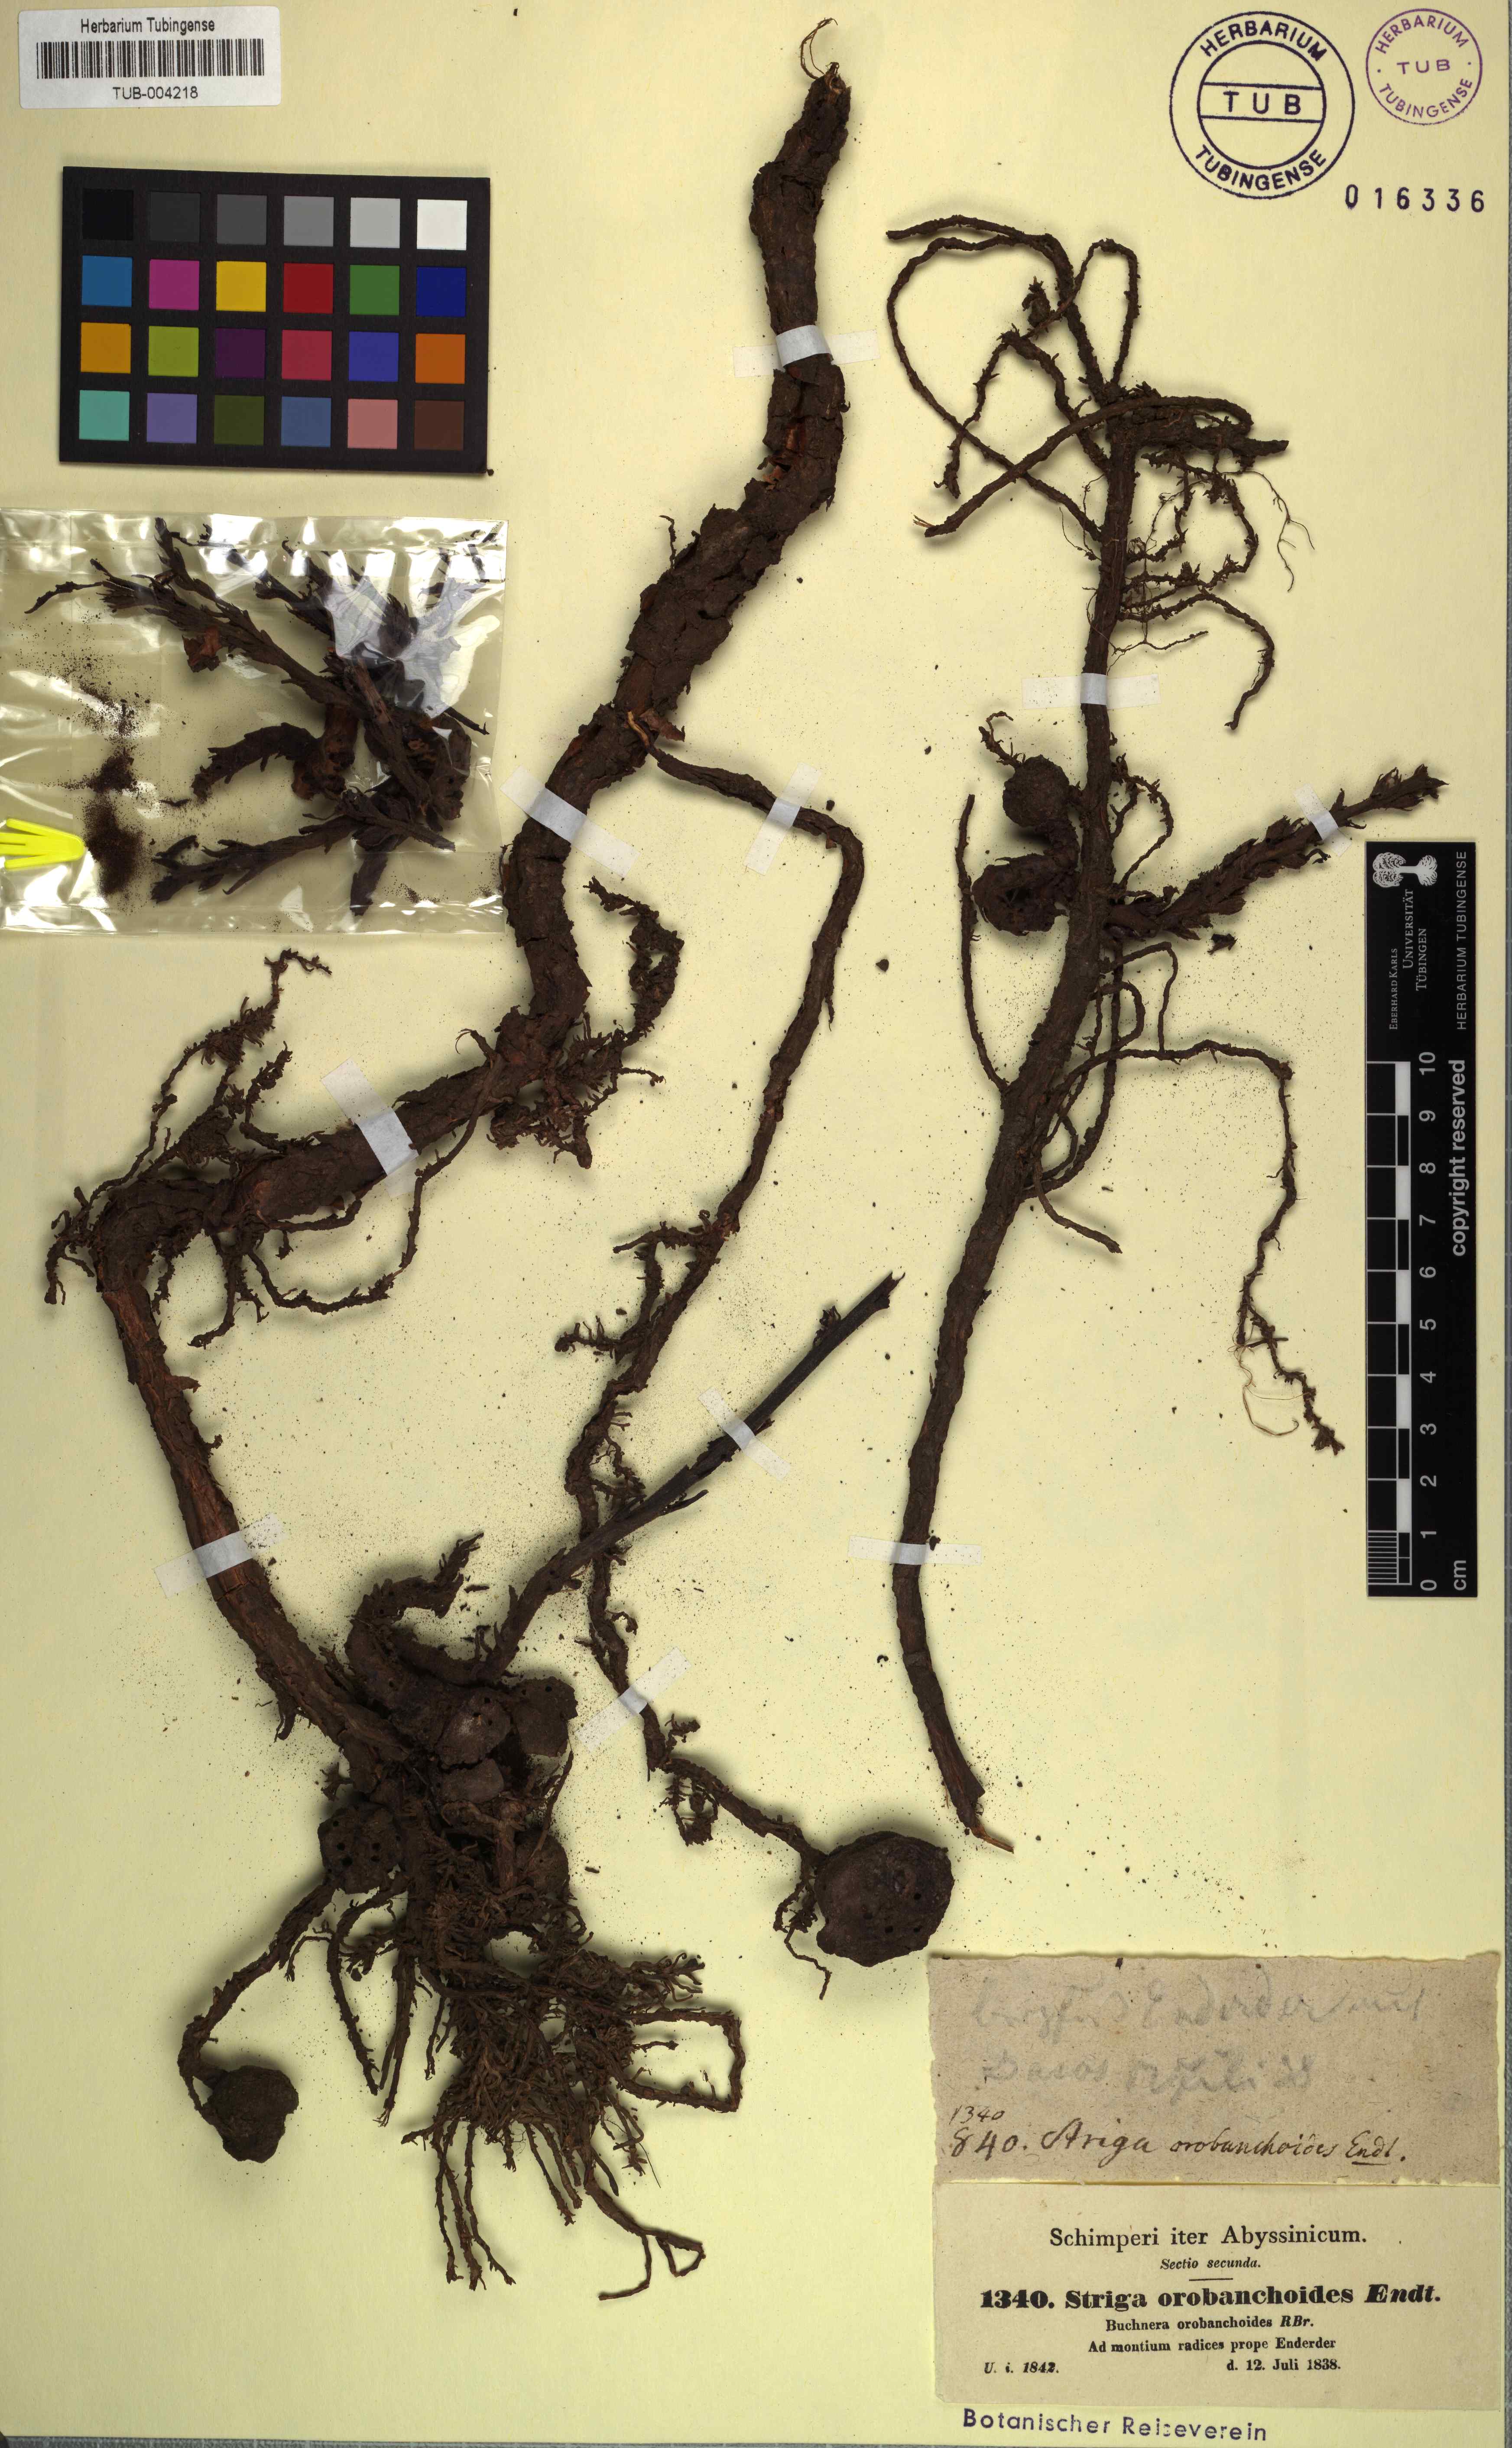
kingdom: Plantae
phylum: Tracheophyta
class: Magnoliopsida
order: Lamiales
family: Orobanchaceae
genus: Striga
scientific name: Striga barthlottii
